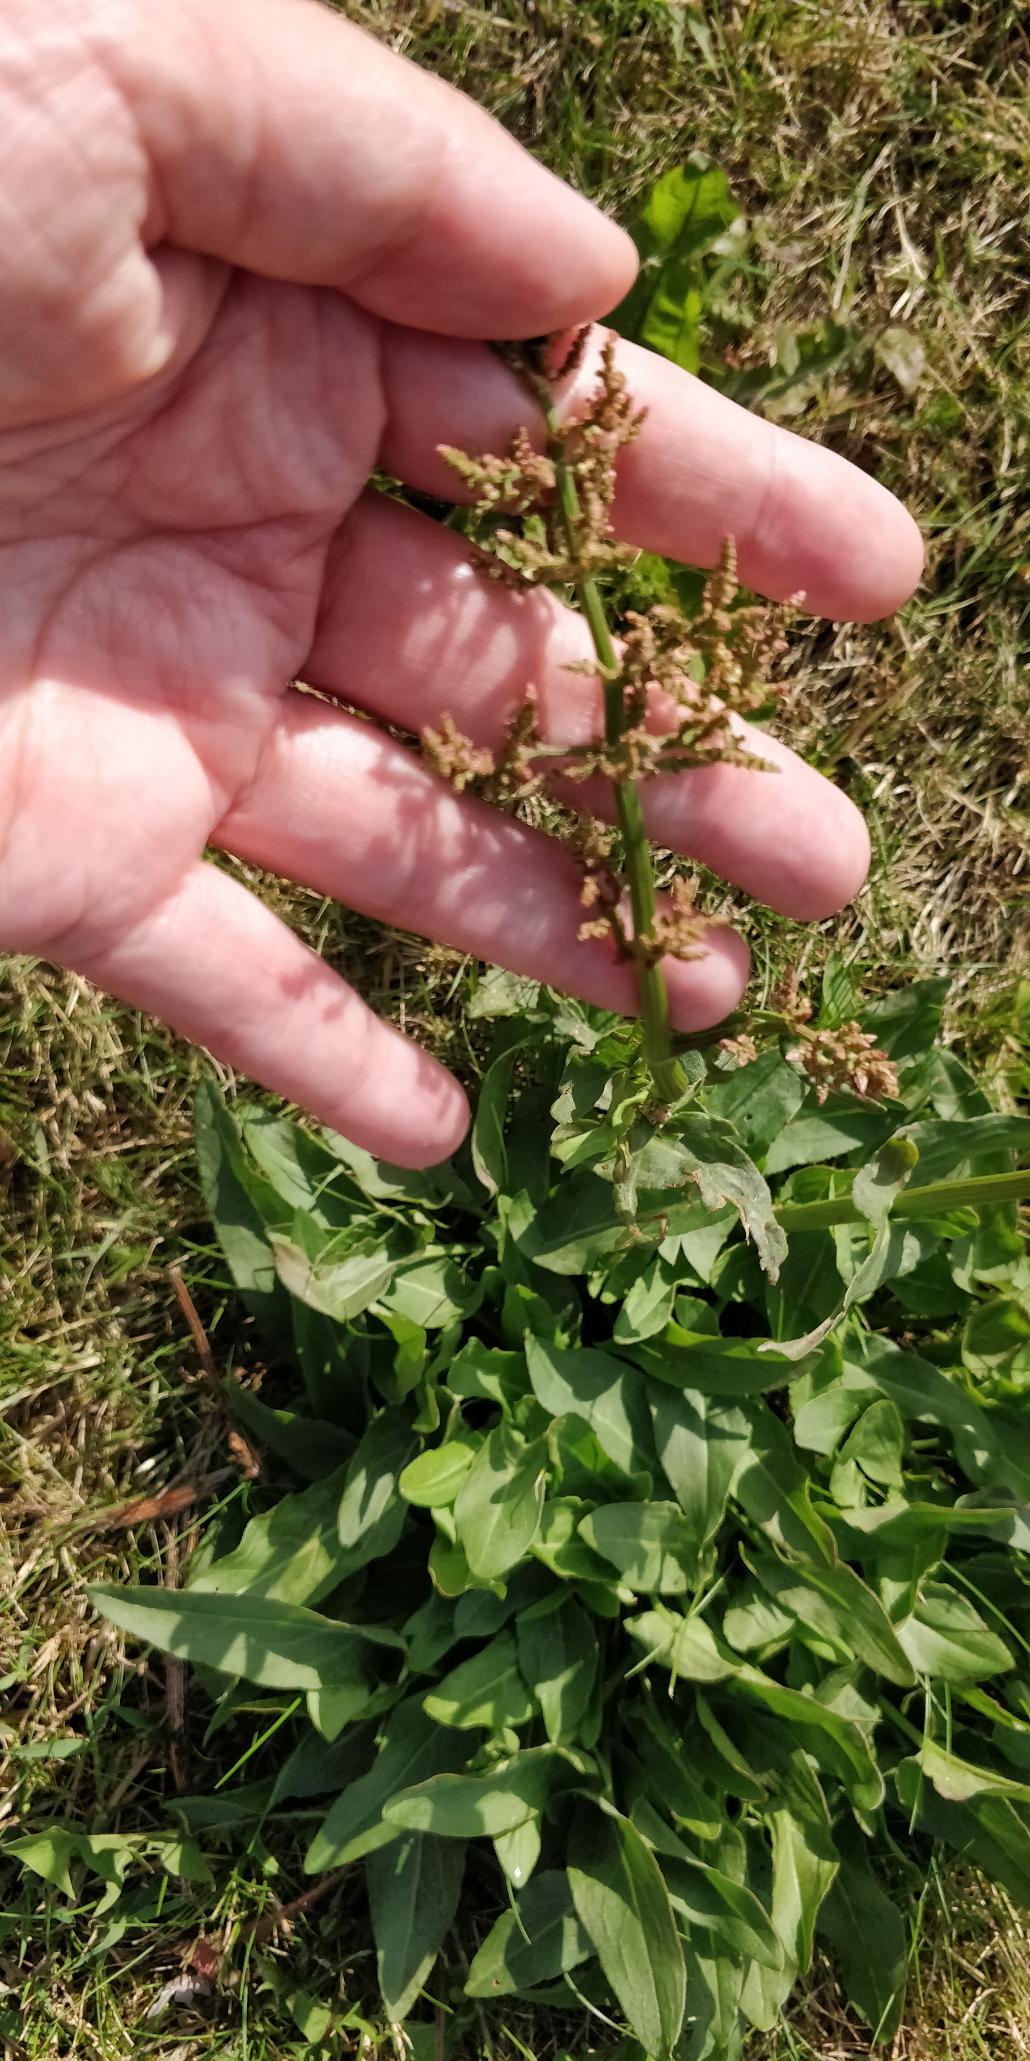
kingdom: Plantae
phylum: Tracheophyta
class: Magnoliopsida
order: Caryophyllales
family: Polygonaceae
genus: Rumex
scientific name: Rumex thyrsiflorus
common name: Dusk-syre
